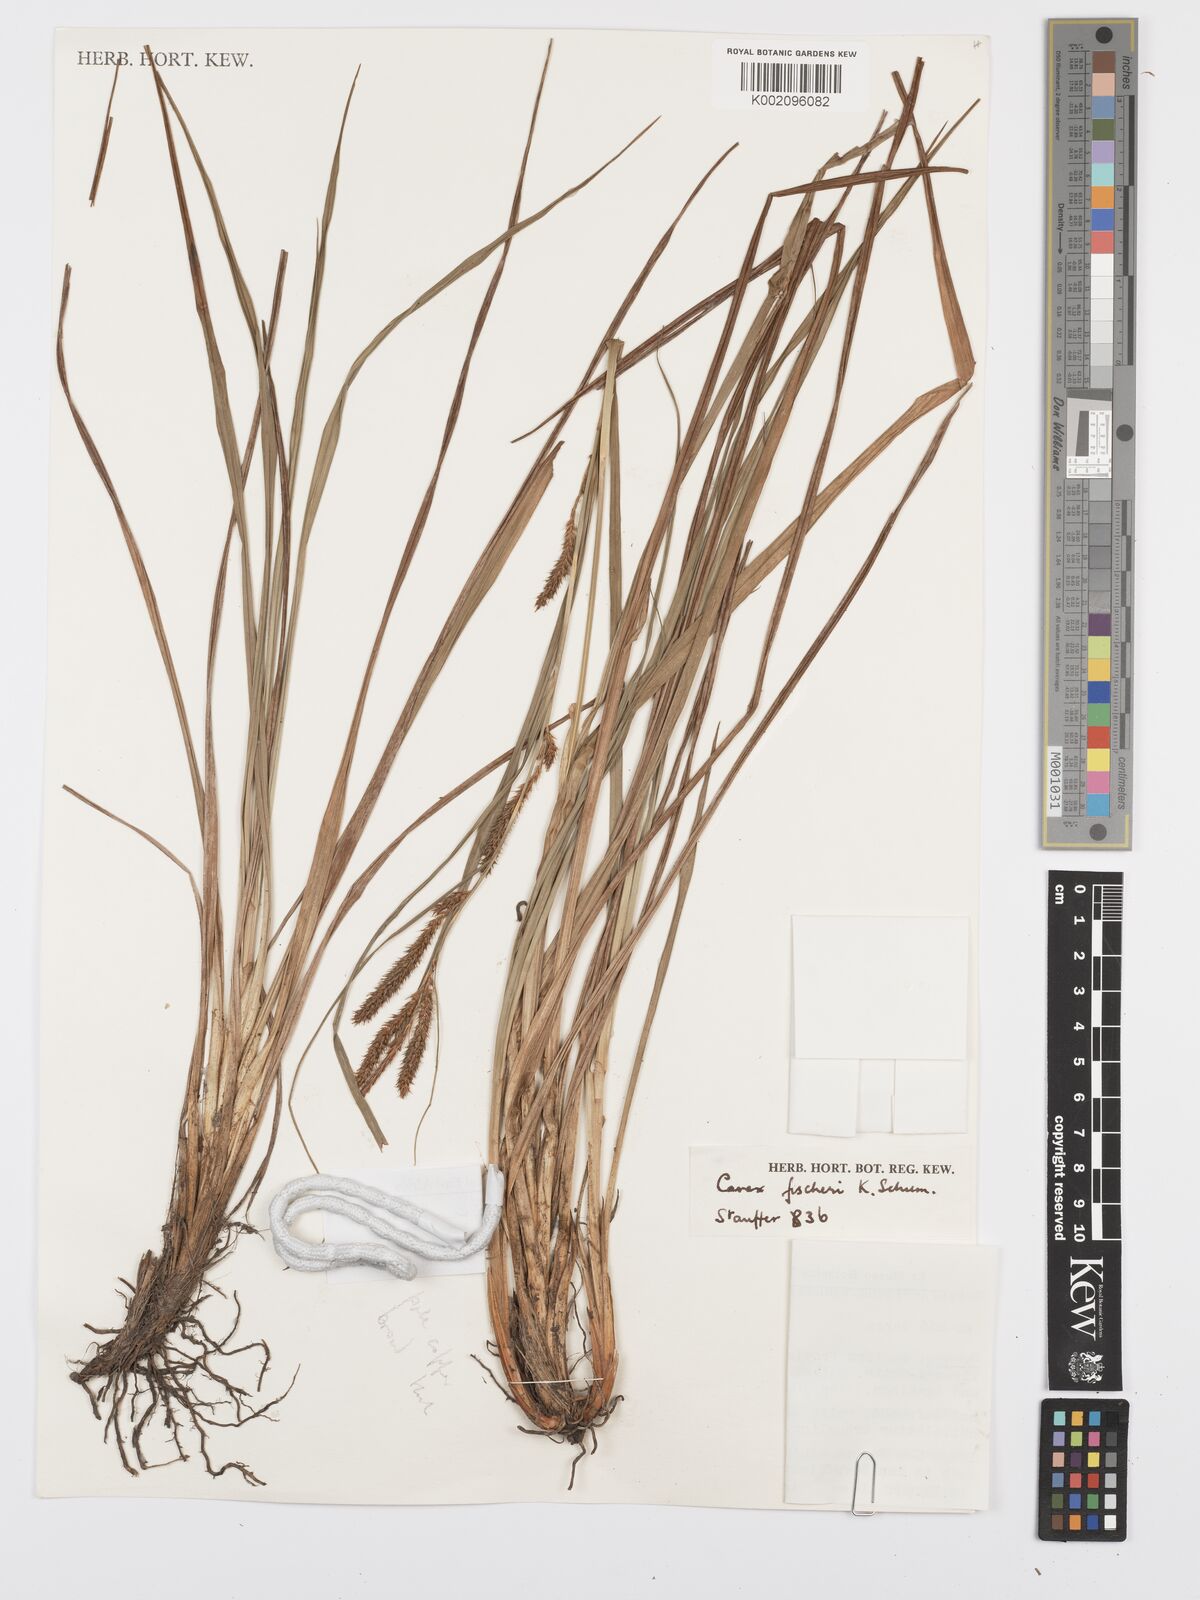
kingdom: Plantae
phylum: Tracheophyta
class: Liliopsida
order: Poales
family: Cyperaceae
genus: Carex
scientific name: Carex fischeri
